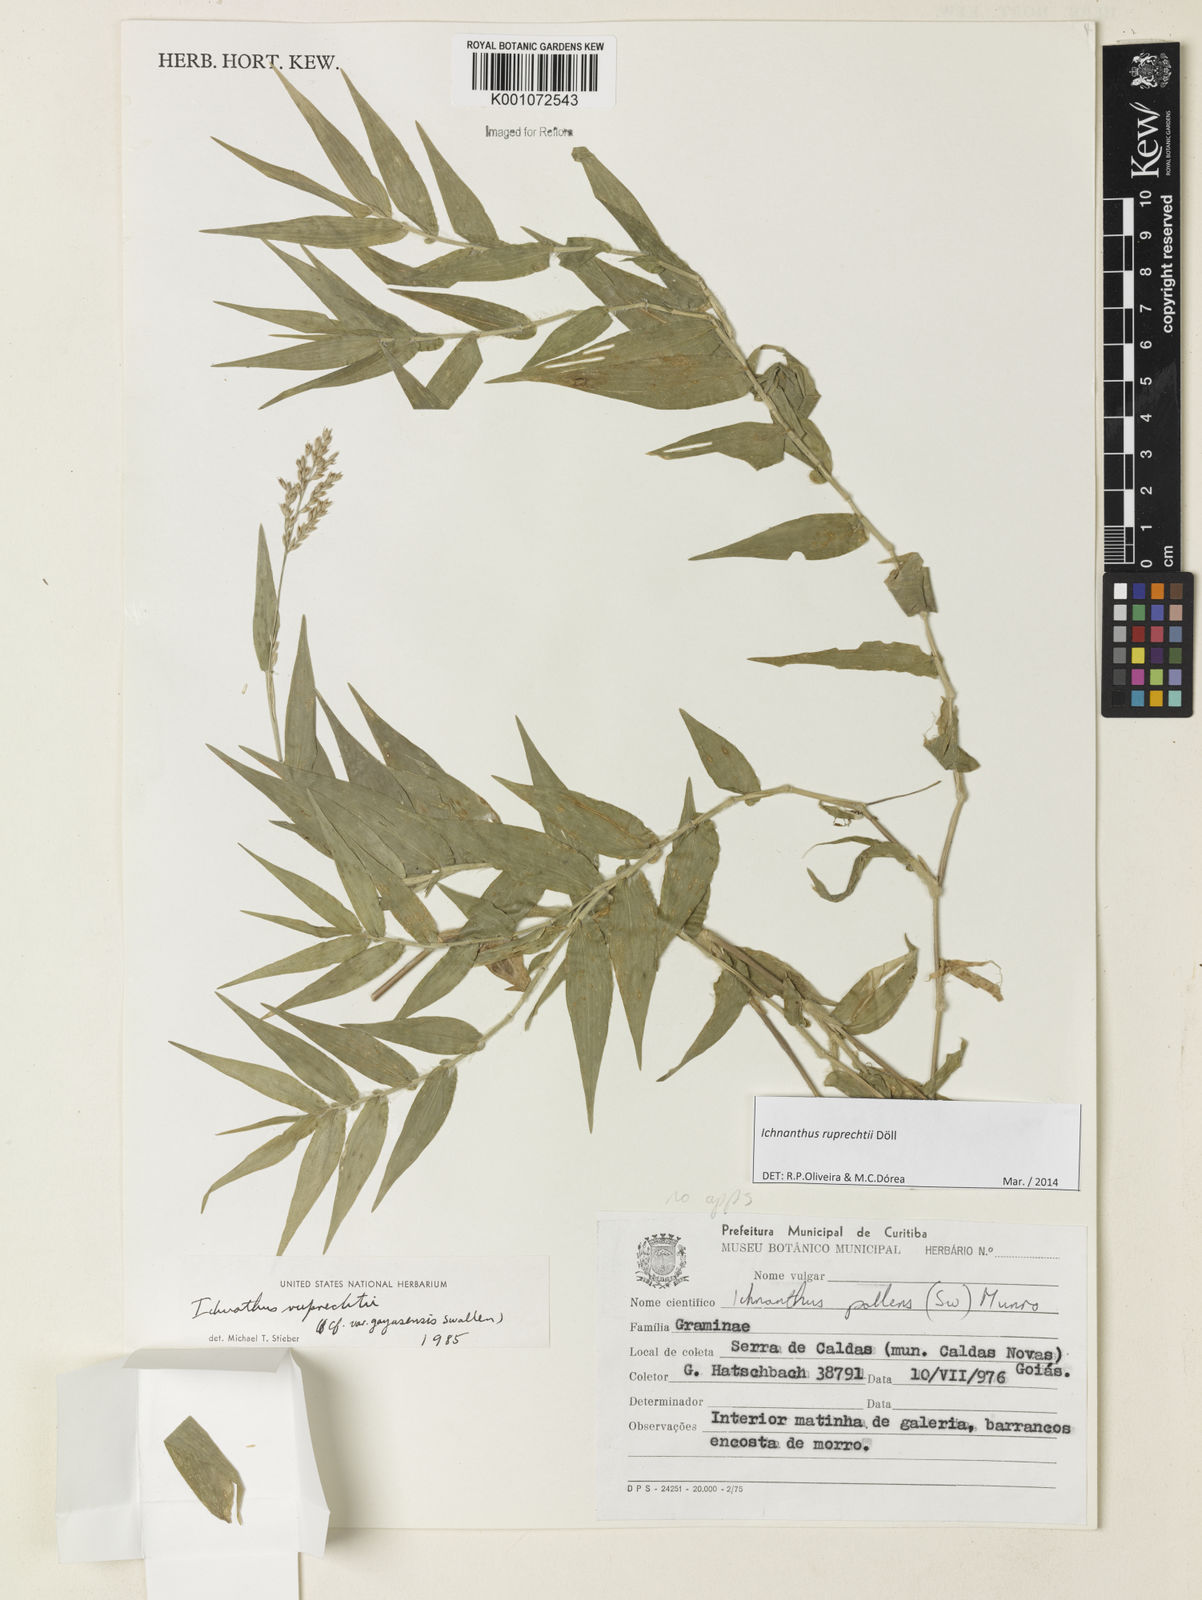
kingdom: Plantae
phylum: Tracheophyta
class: Liliopsida
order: Poales
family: Poaceae
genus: Ichnanthus
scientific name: Ichnanthus
